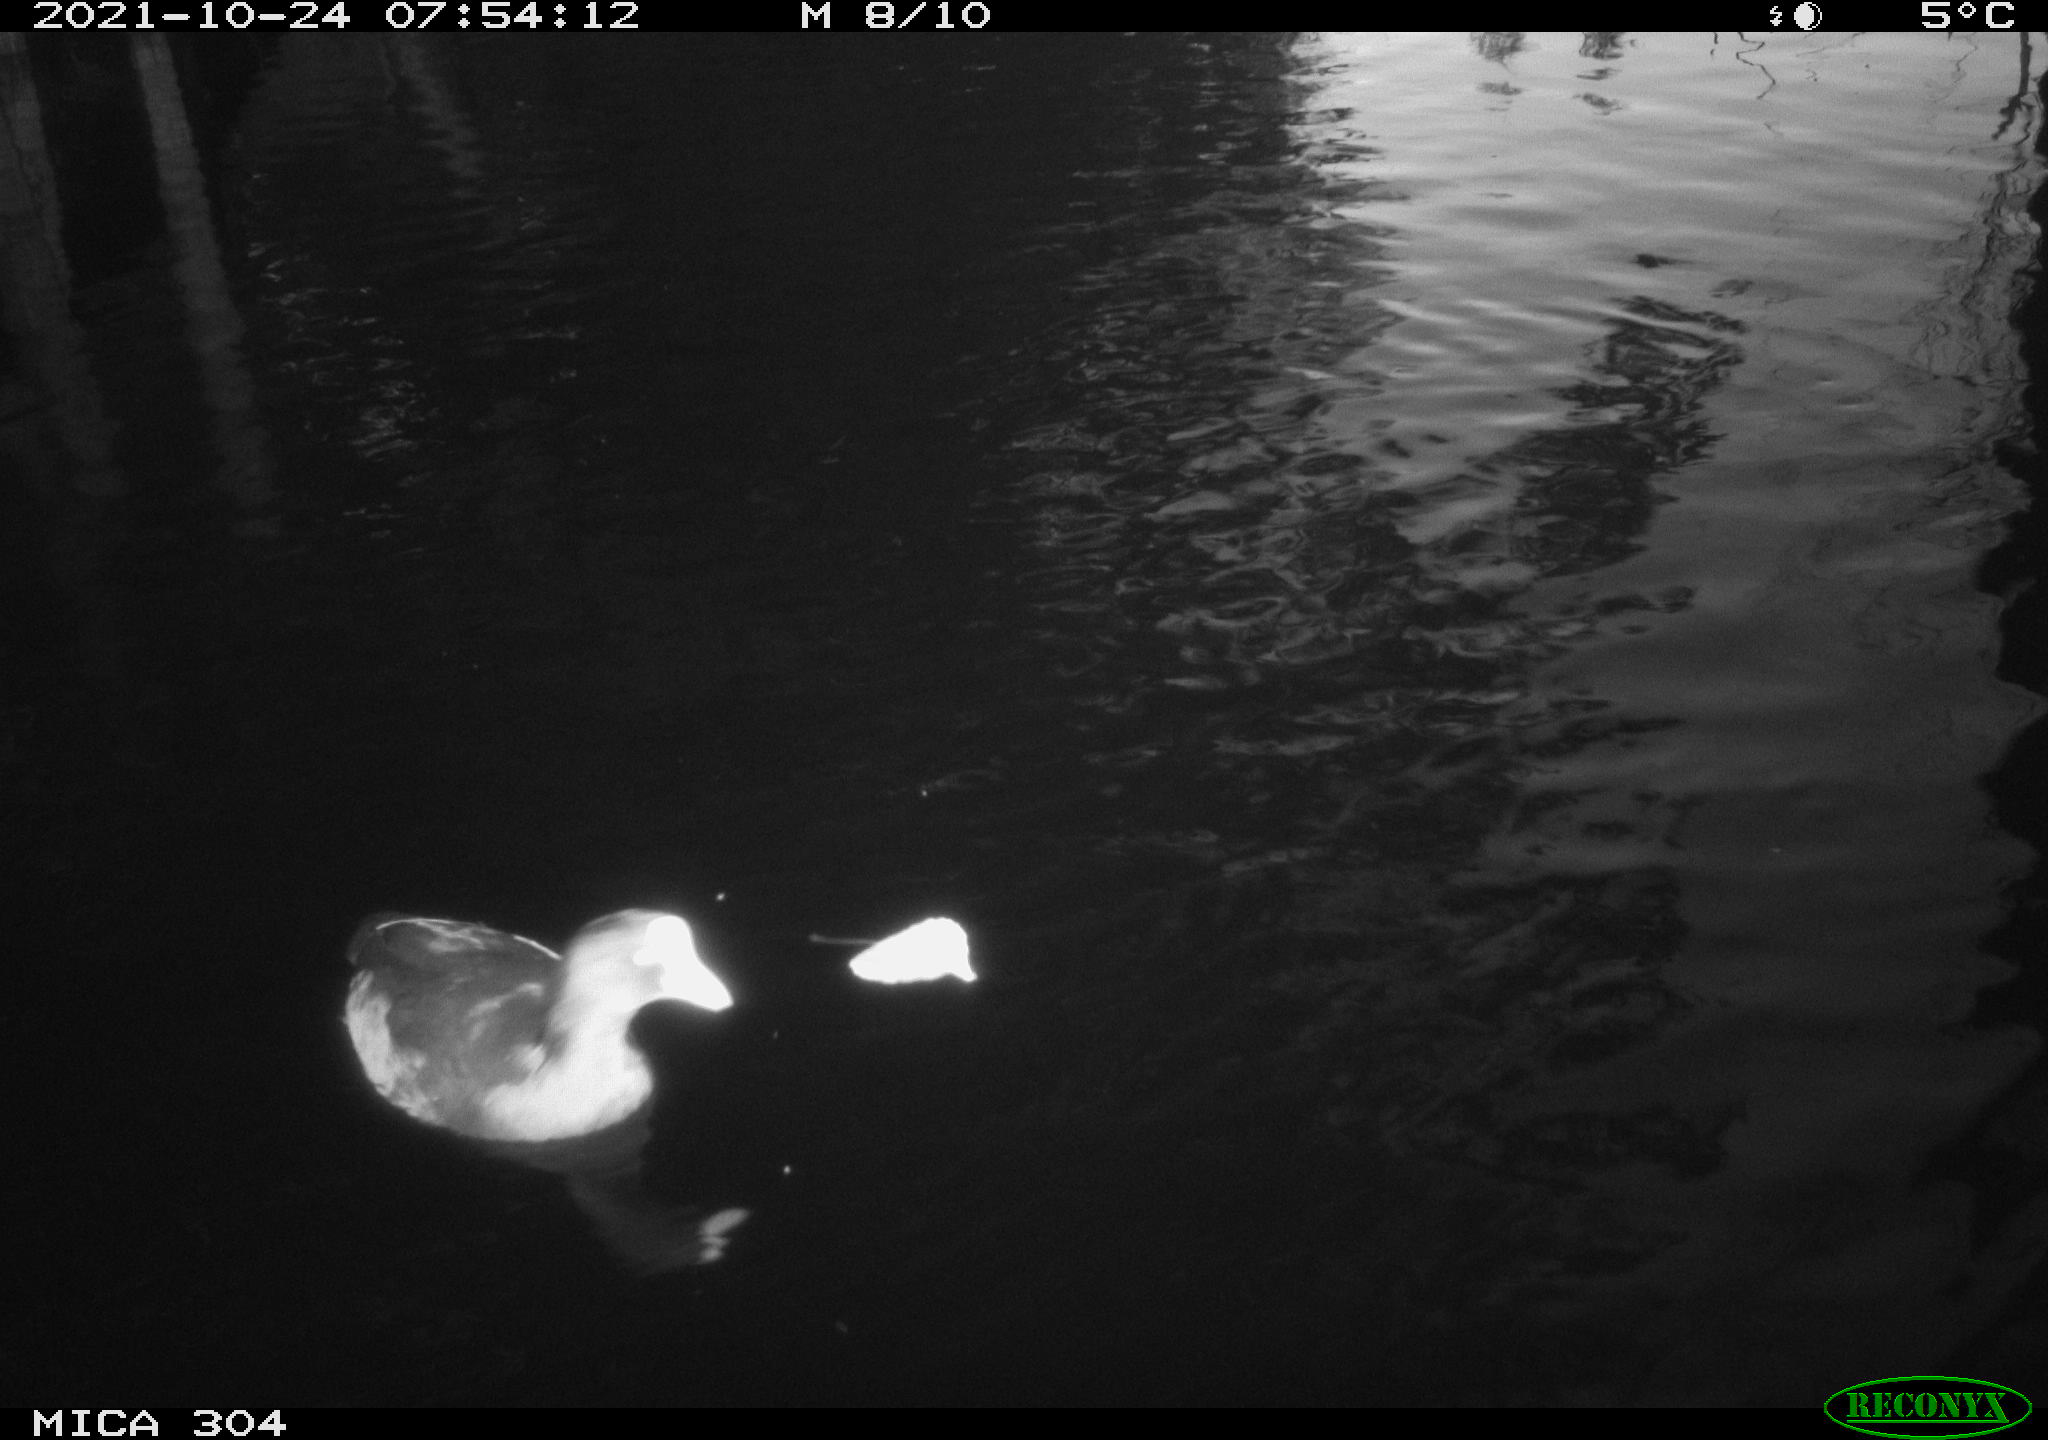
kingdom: Animalia
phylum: Chordata
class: Aves
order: Gruiformes
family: Rallidae
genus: Gallinula
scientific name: Gallinula chloropus
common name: Common moorhen
